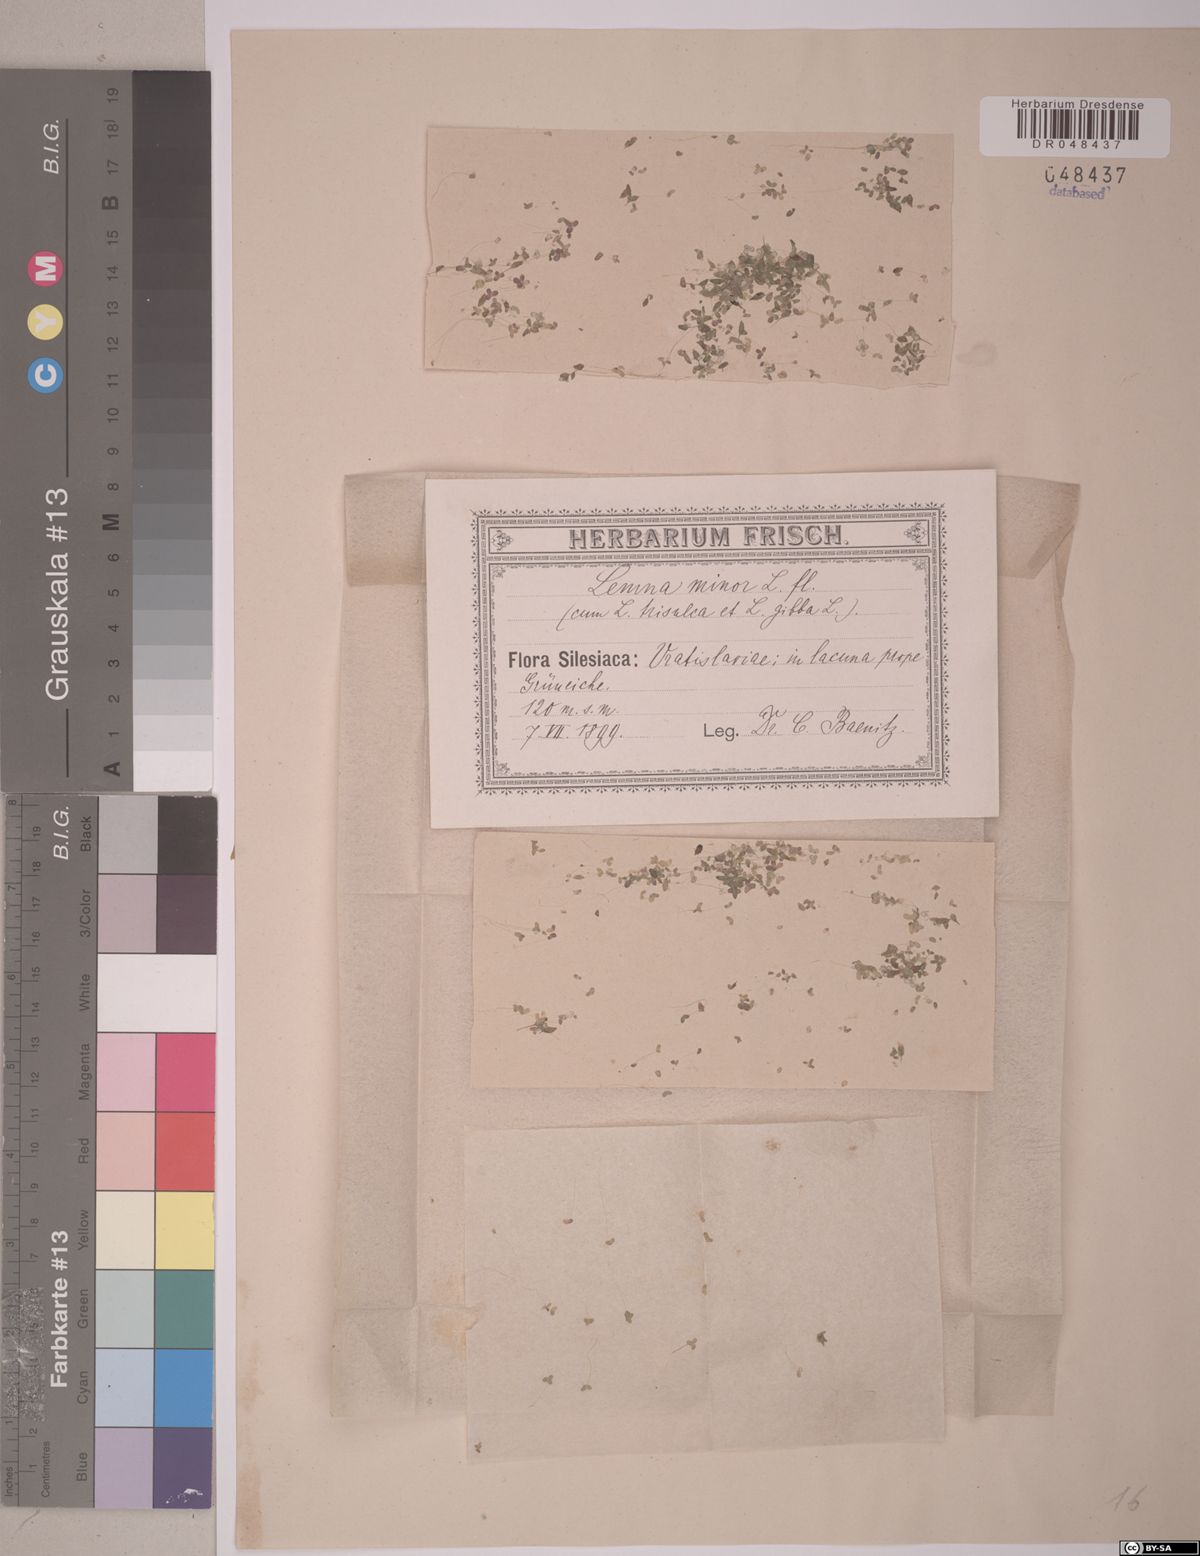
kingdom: Plantae
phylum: Tracheophyta
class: Liliopsida
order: Alismatales
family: Araceae
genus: Lemna
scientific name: Lemna minor
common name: Common duckweed
